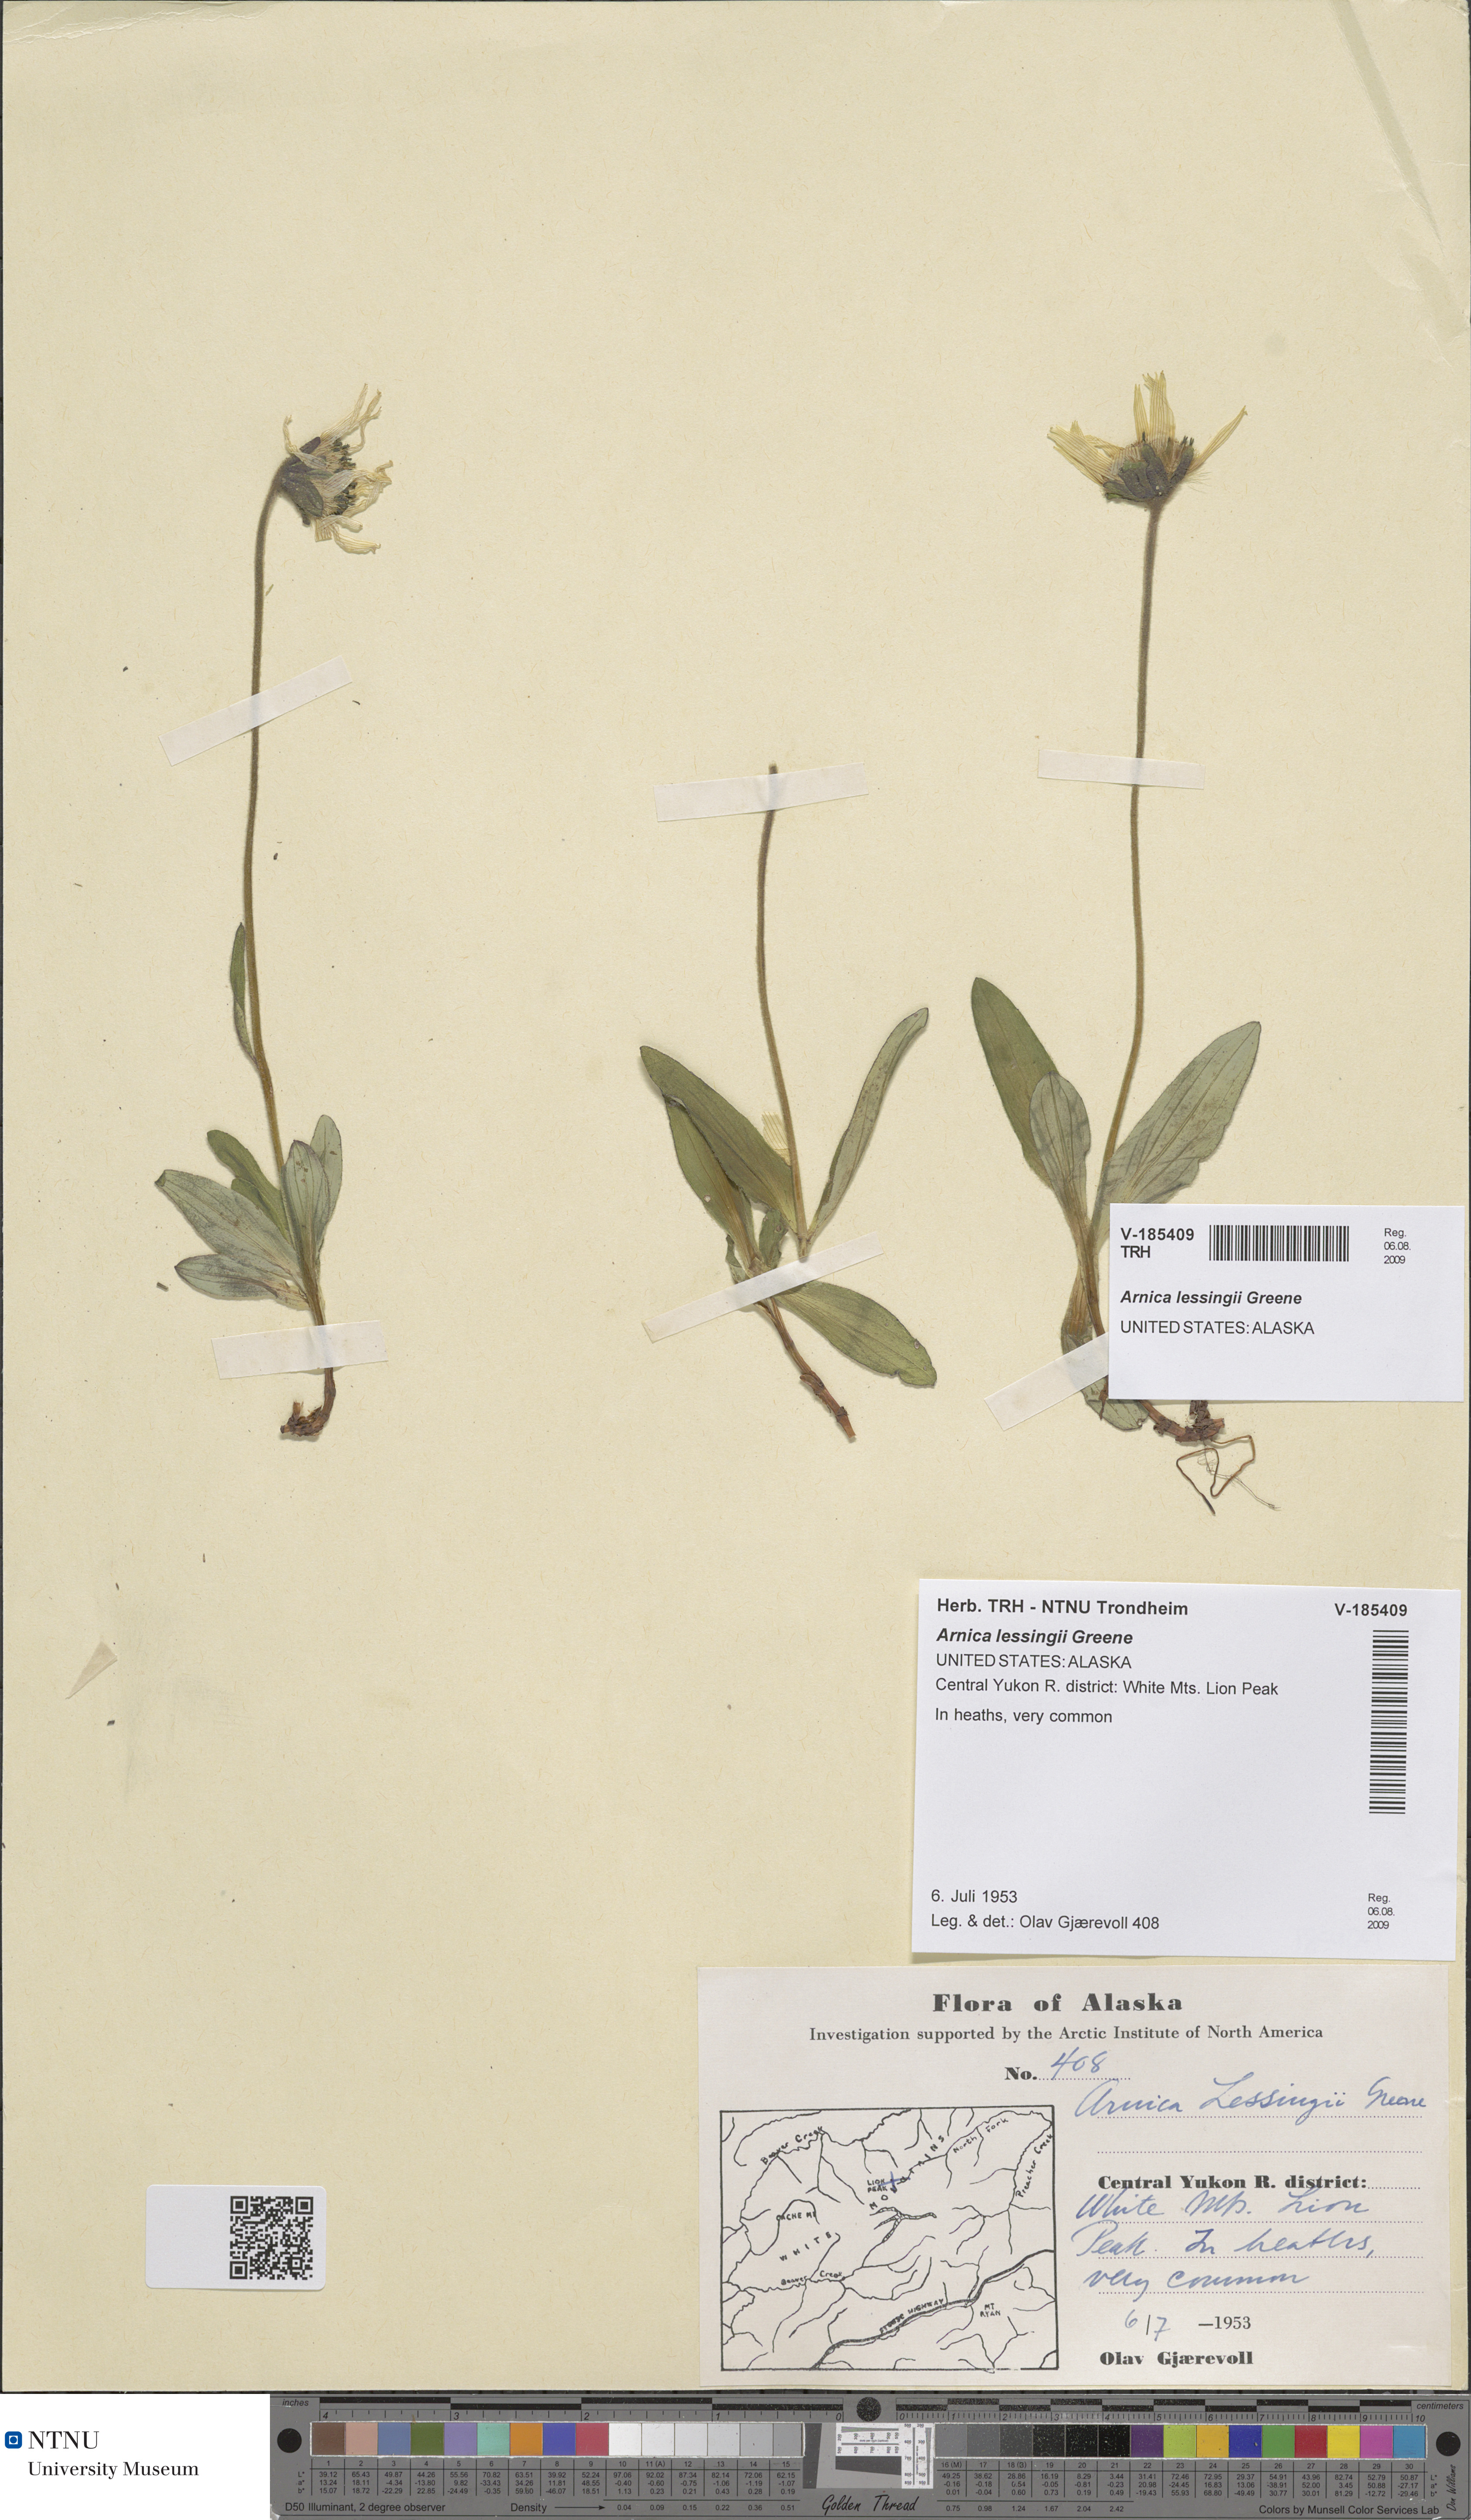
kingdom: Plantae
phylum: Tracheophyta
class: Magnoliopsida
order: Asterales
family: Asteraceae
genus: Arnica
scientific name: Arnica lessingii
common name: Nodding arnica
